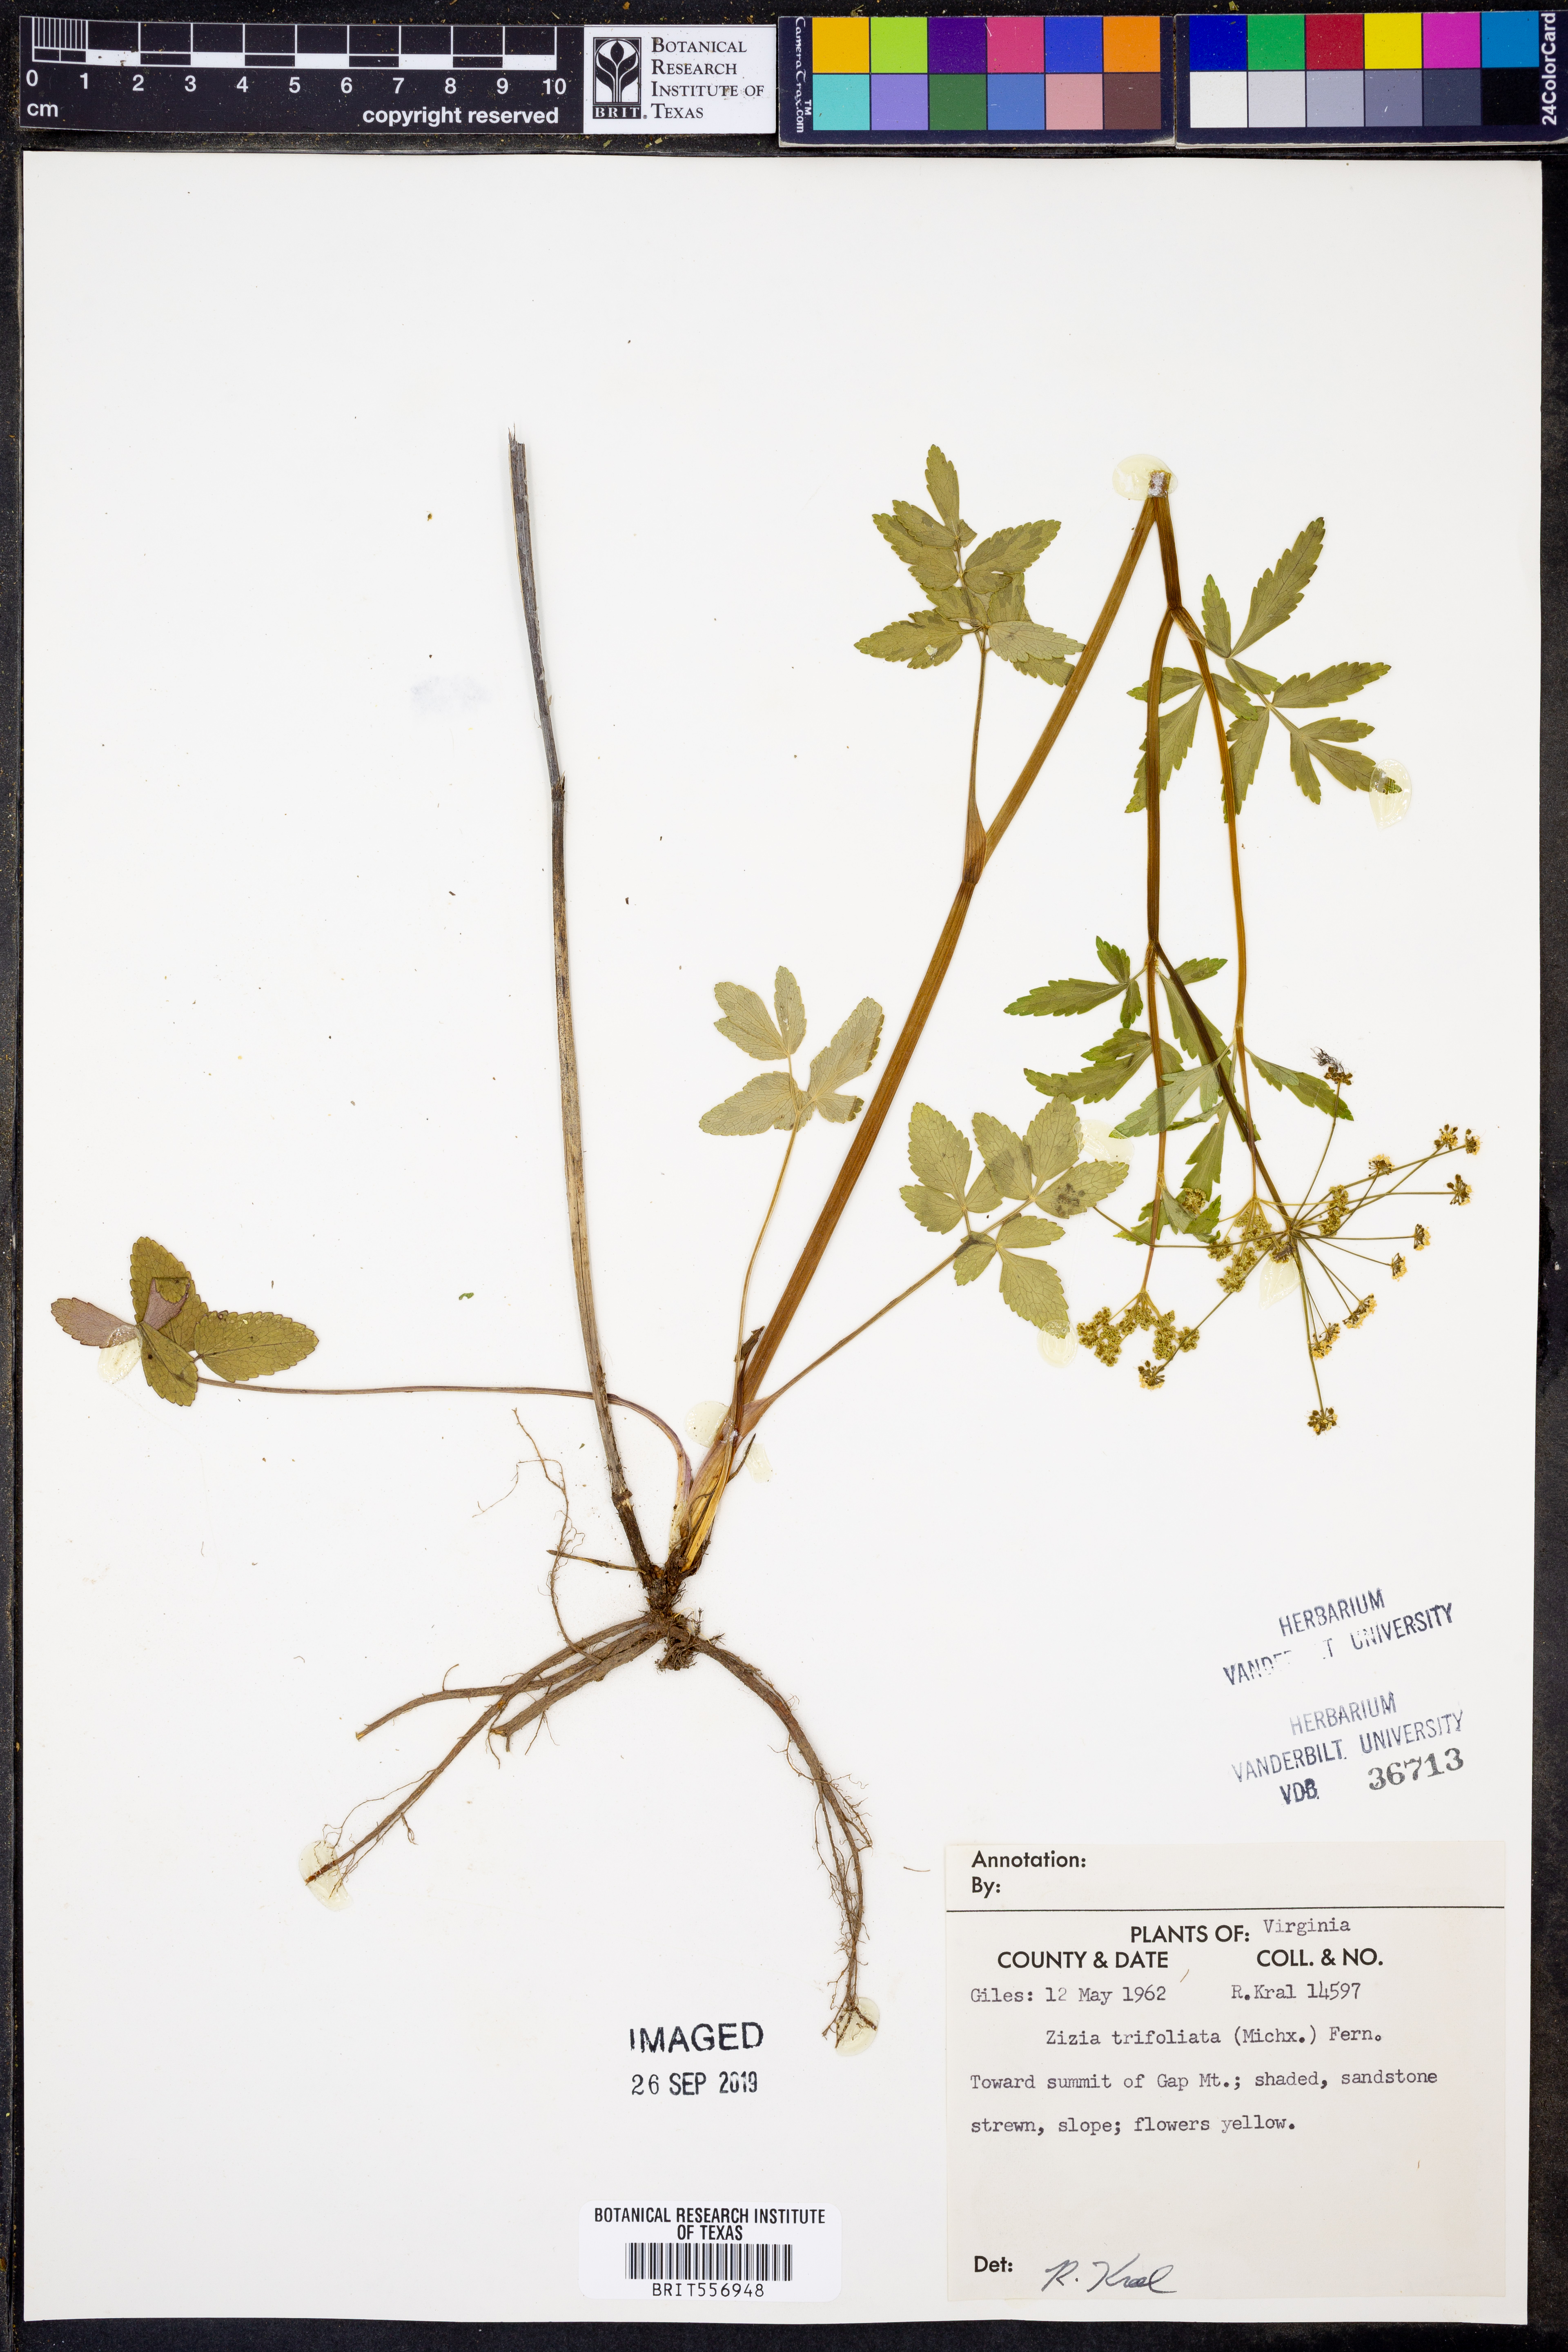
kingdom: Plantae
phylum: Tracheophyta
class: Magnoliopsida
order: Apiales
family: Apiaceae
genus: Zizia
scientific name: Zizia trifoliata
